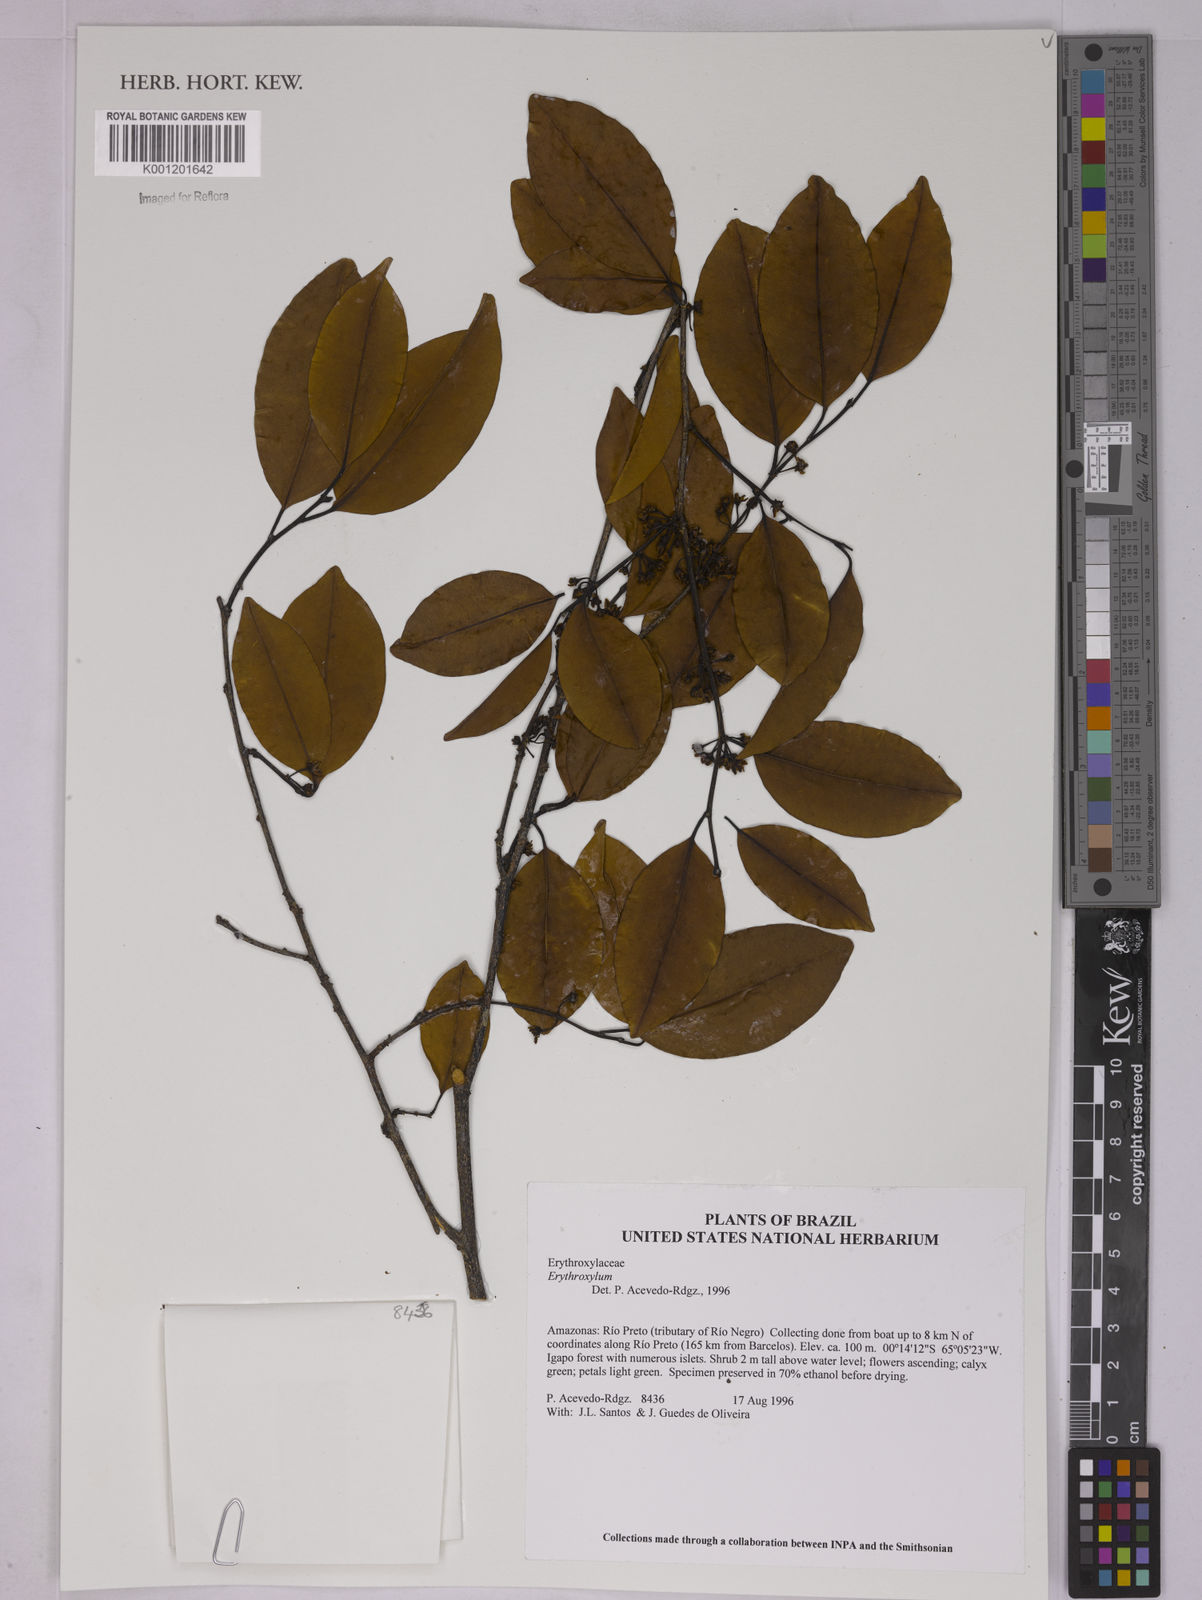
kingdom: Plantae
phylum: Tracheophyta
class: Magnoliopsida
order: Malpighiales
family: Erythroxylaceae
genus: Erythroxylum
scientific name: Erythroxylum
